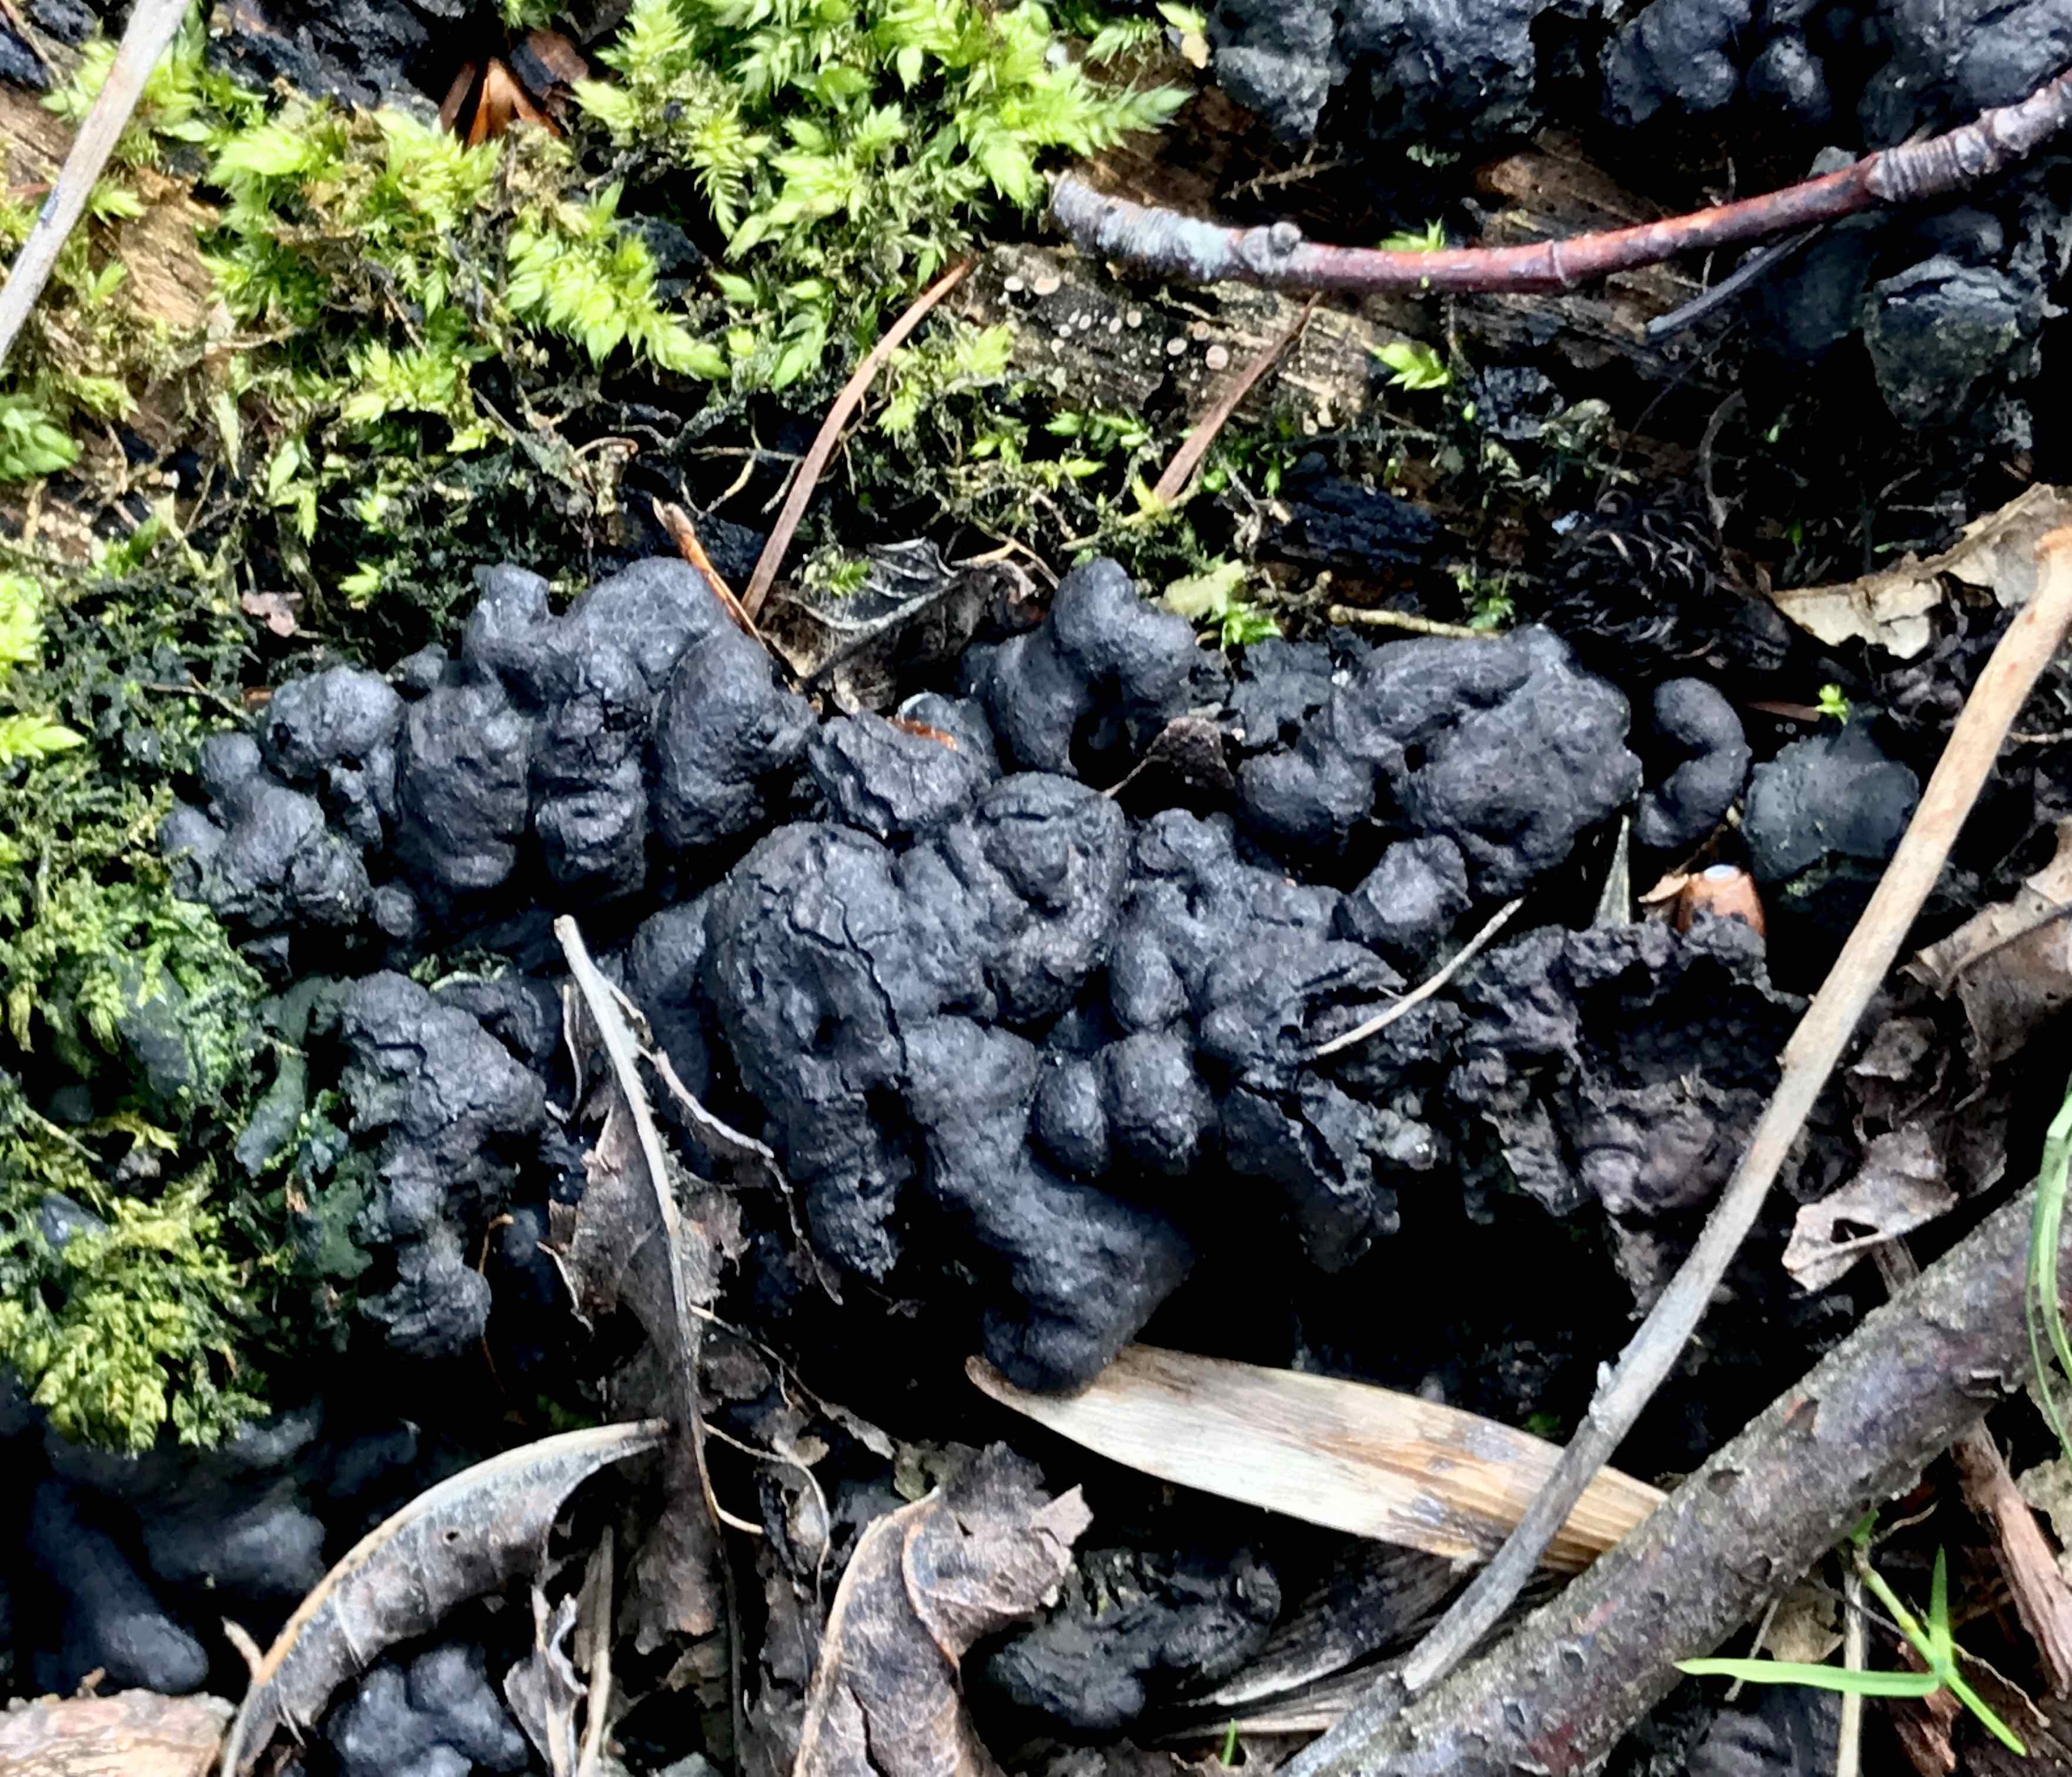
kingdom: Fungi
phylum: Ascomycota
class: Sordariomycetes
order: Xylariales
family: Xylariaceae
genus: Kretzschmaria
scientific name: Kretzschmaria deusta
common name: stor kulsvamp
